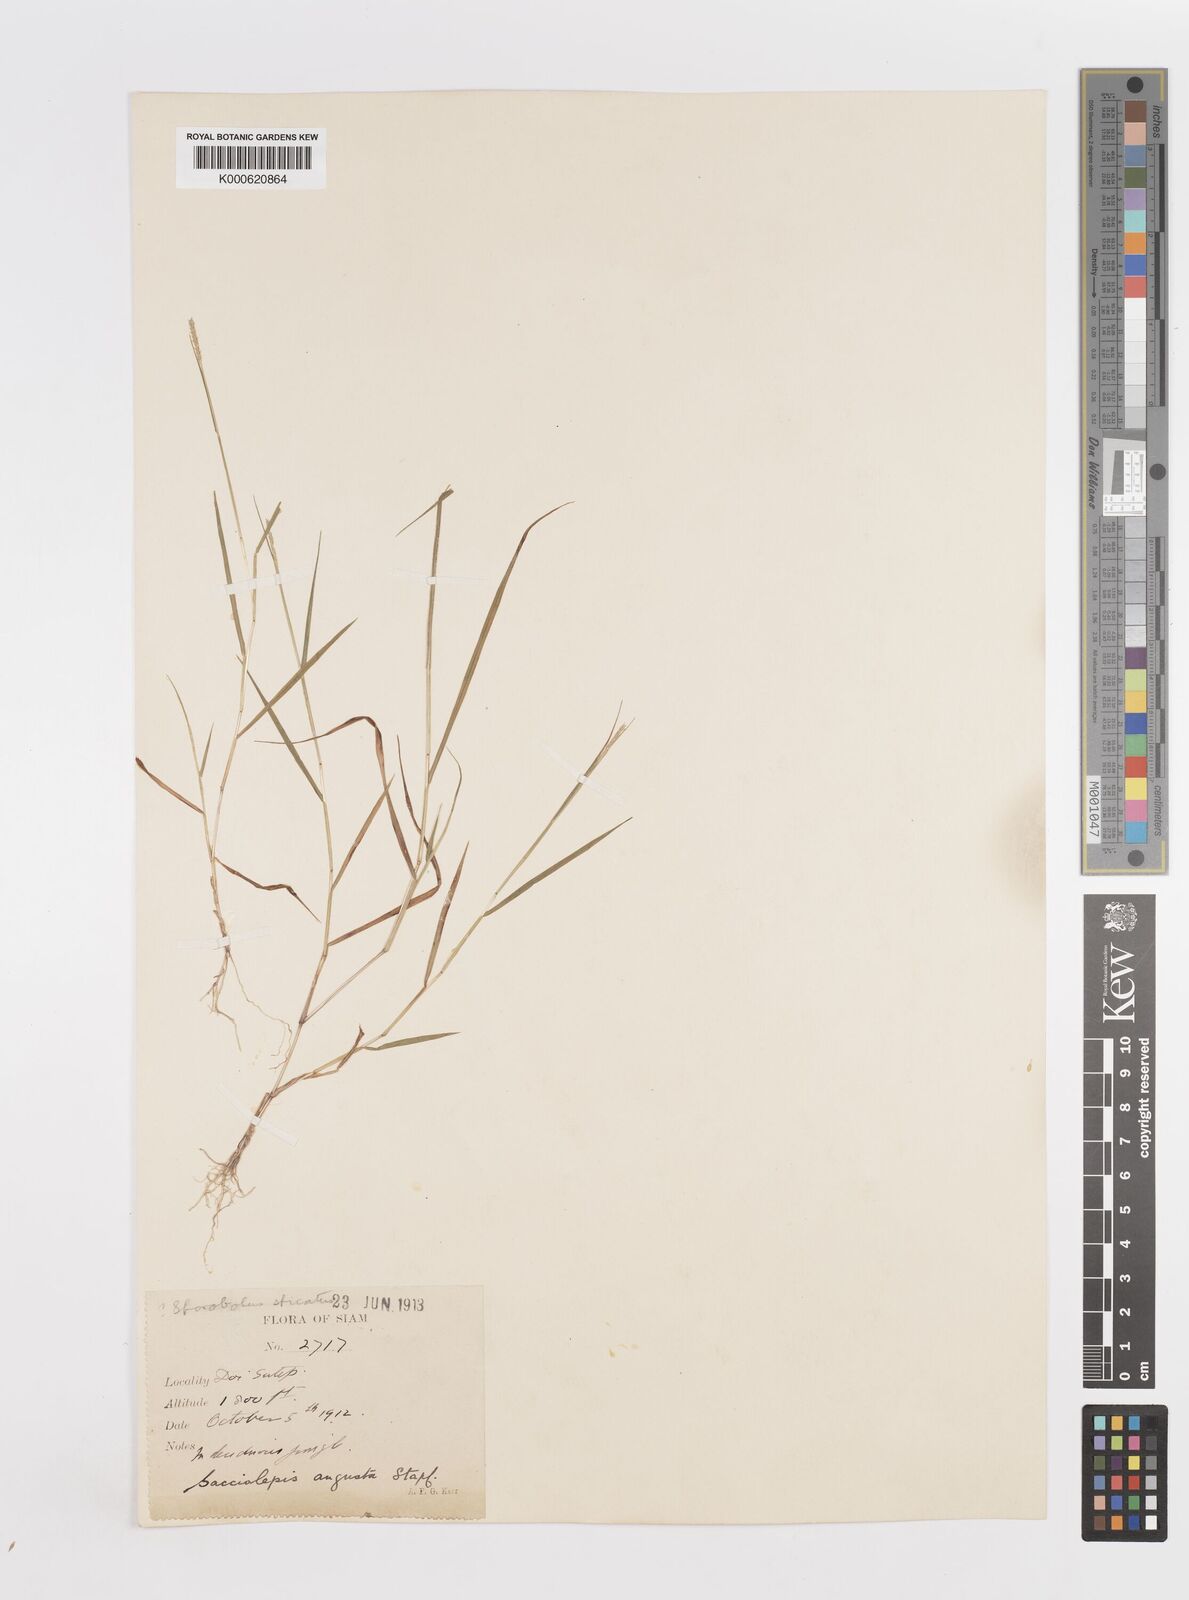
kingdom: Plantae
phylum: Tracheophyta
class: Liliopsida
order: Poales
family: Poaceae
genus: Sacciolepis
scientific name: Sacciolepis indica
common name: Glenwoodgrass
